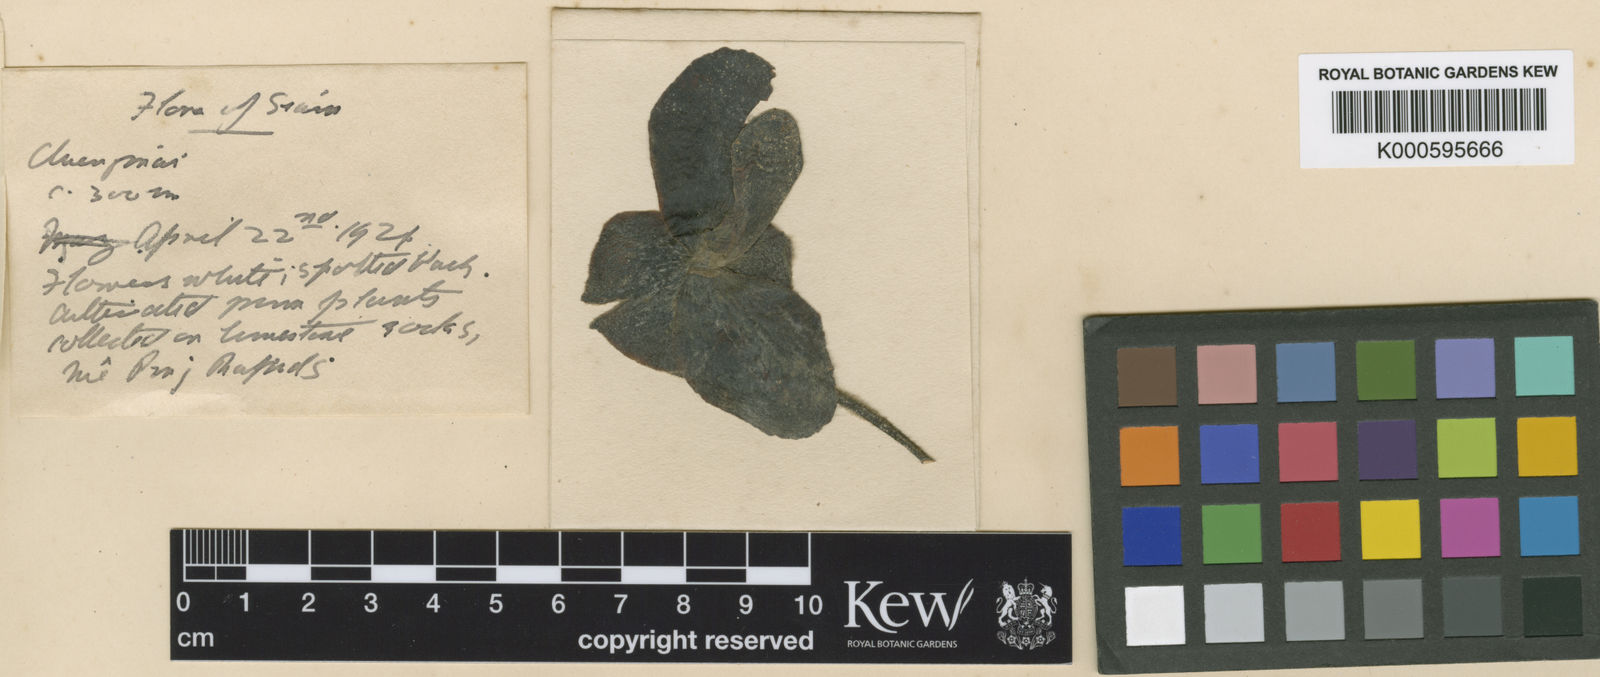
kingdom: Plantae
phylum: Tracheophyta
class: Liliopsida
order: Asparagales
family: Orchidaceae
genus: Paphiopedilum
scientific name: Paphiopedilum bellatulum
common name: Enchanting paphiopedilum
